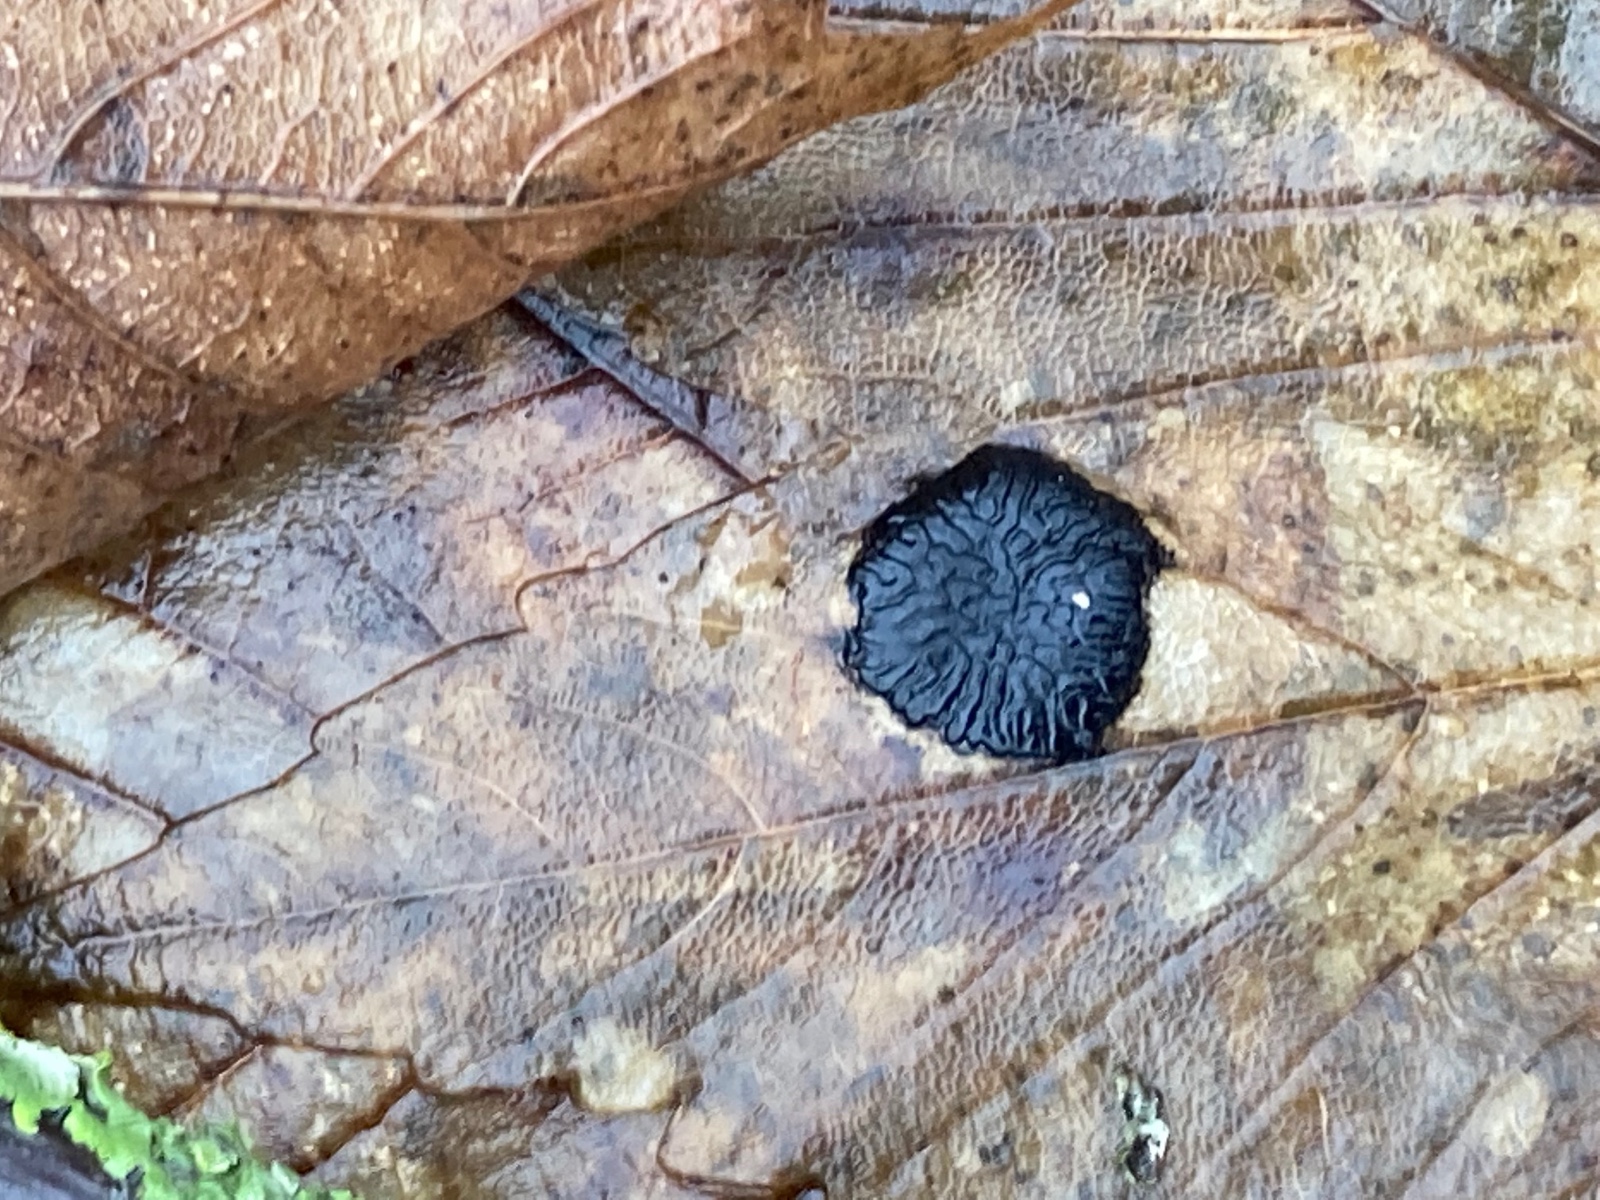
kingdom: Fungi
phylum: Ascomycota
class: Leotiomycetes
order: Rhytismatales
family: Rhytismataceae
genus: Rhytisma
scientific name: Rhytisma acerinum
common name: ahorn-rynkeplet
